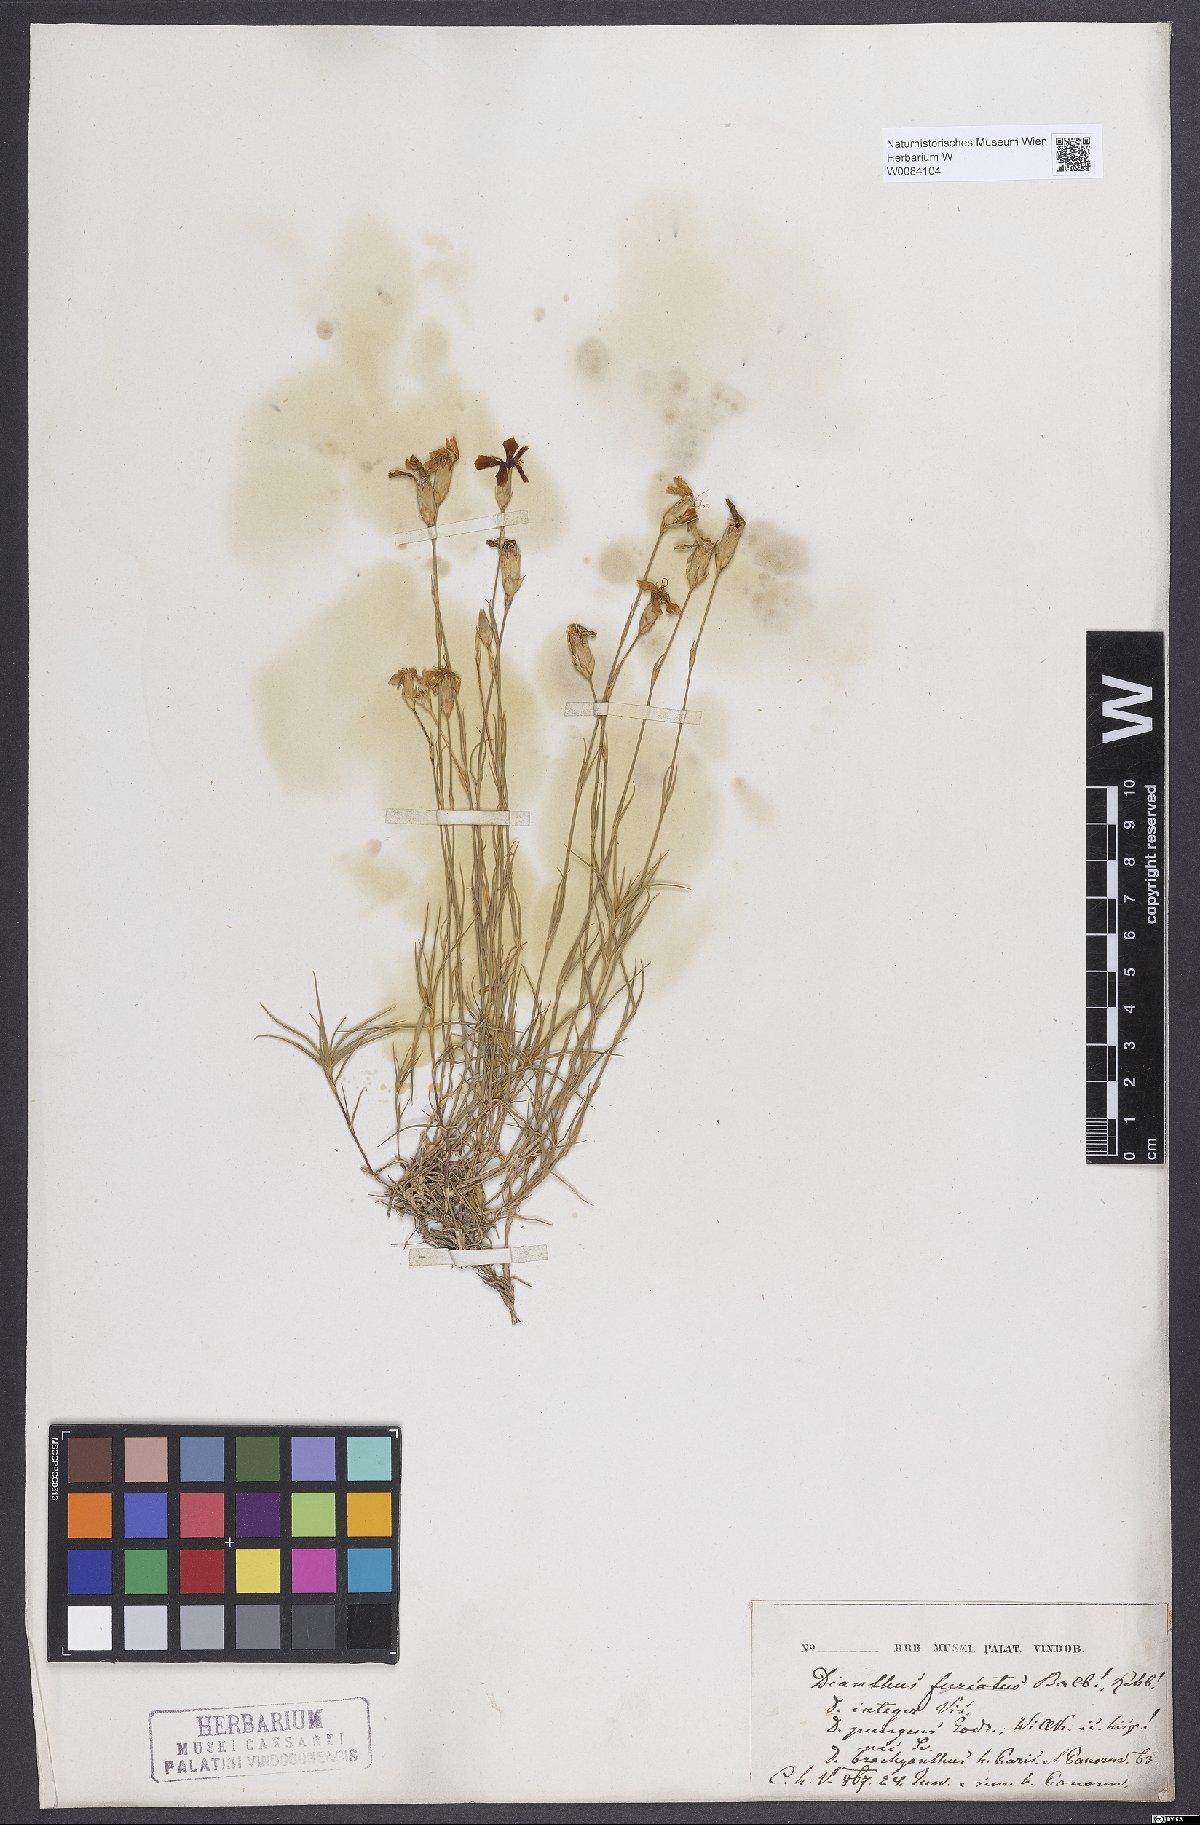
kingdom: Plantae
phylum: Tracheophyta
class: Magnoliopsida
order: Caryophyllales
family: Caryophyllaceae
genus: Dianthus
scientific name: Dianthus integer
